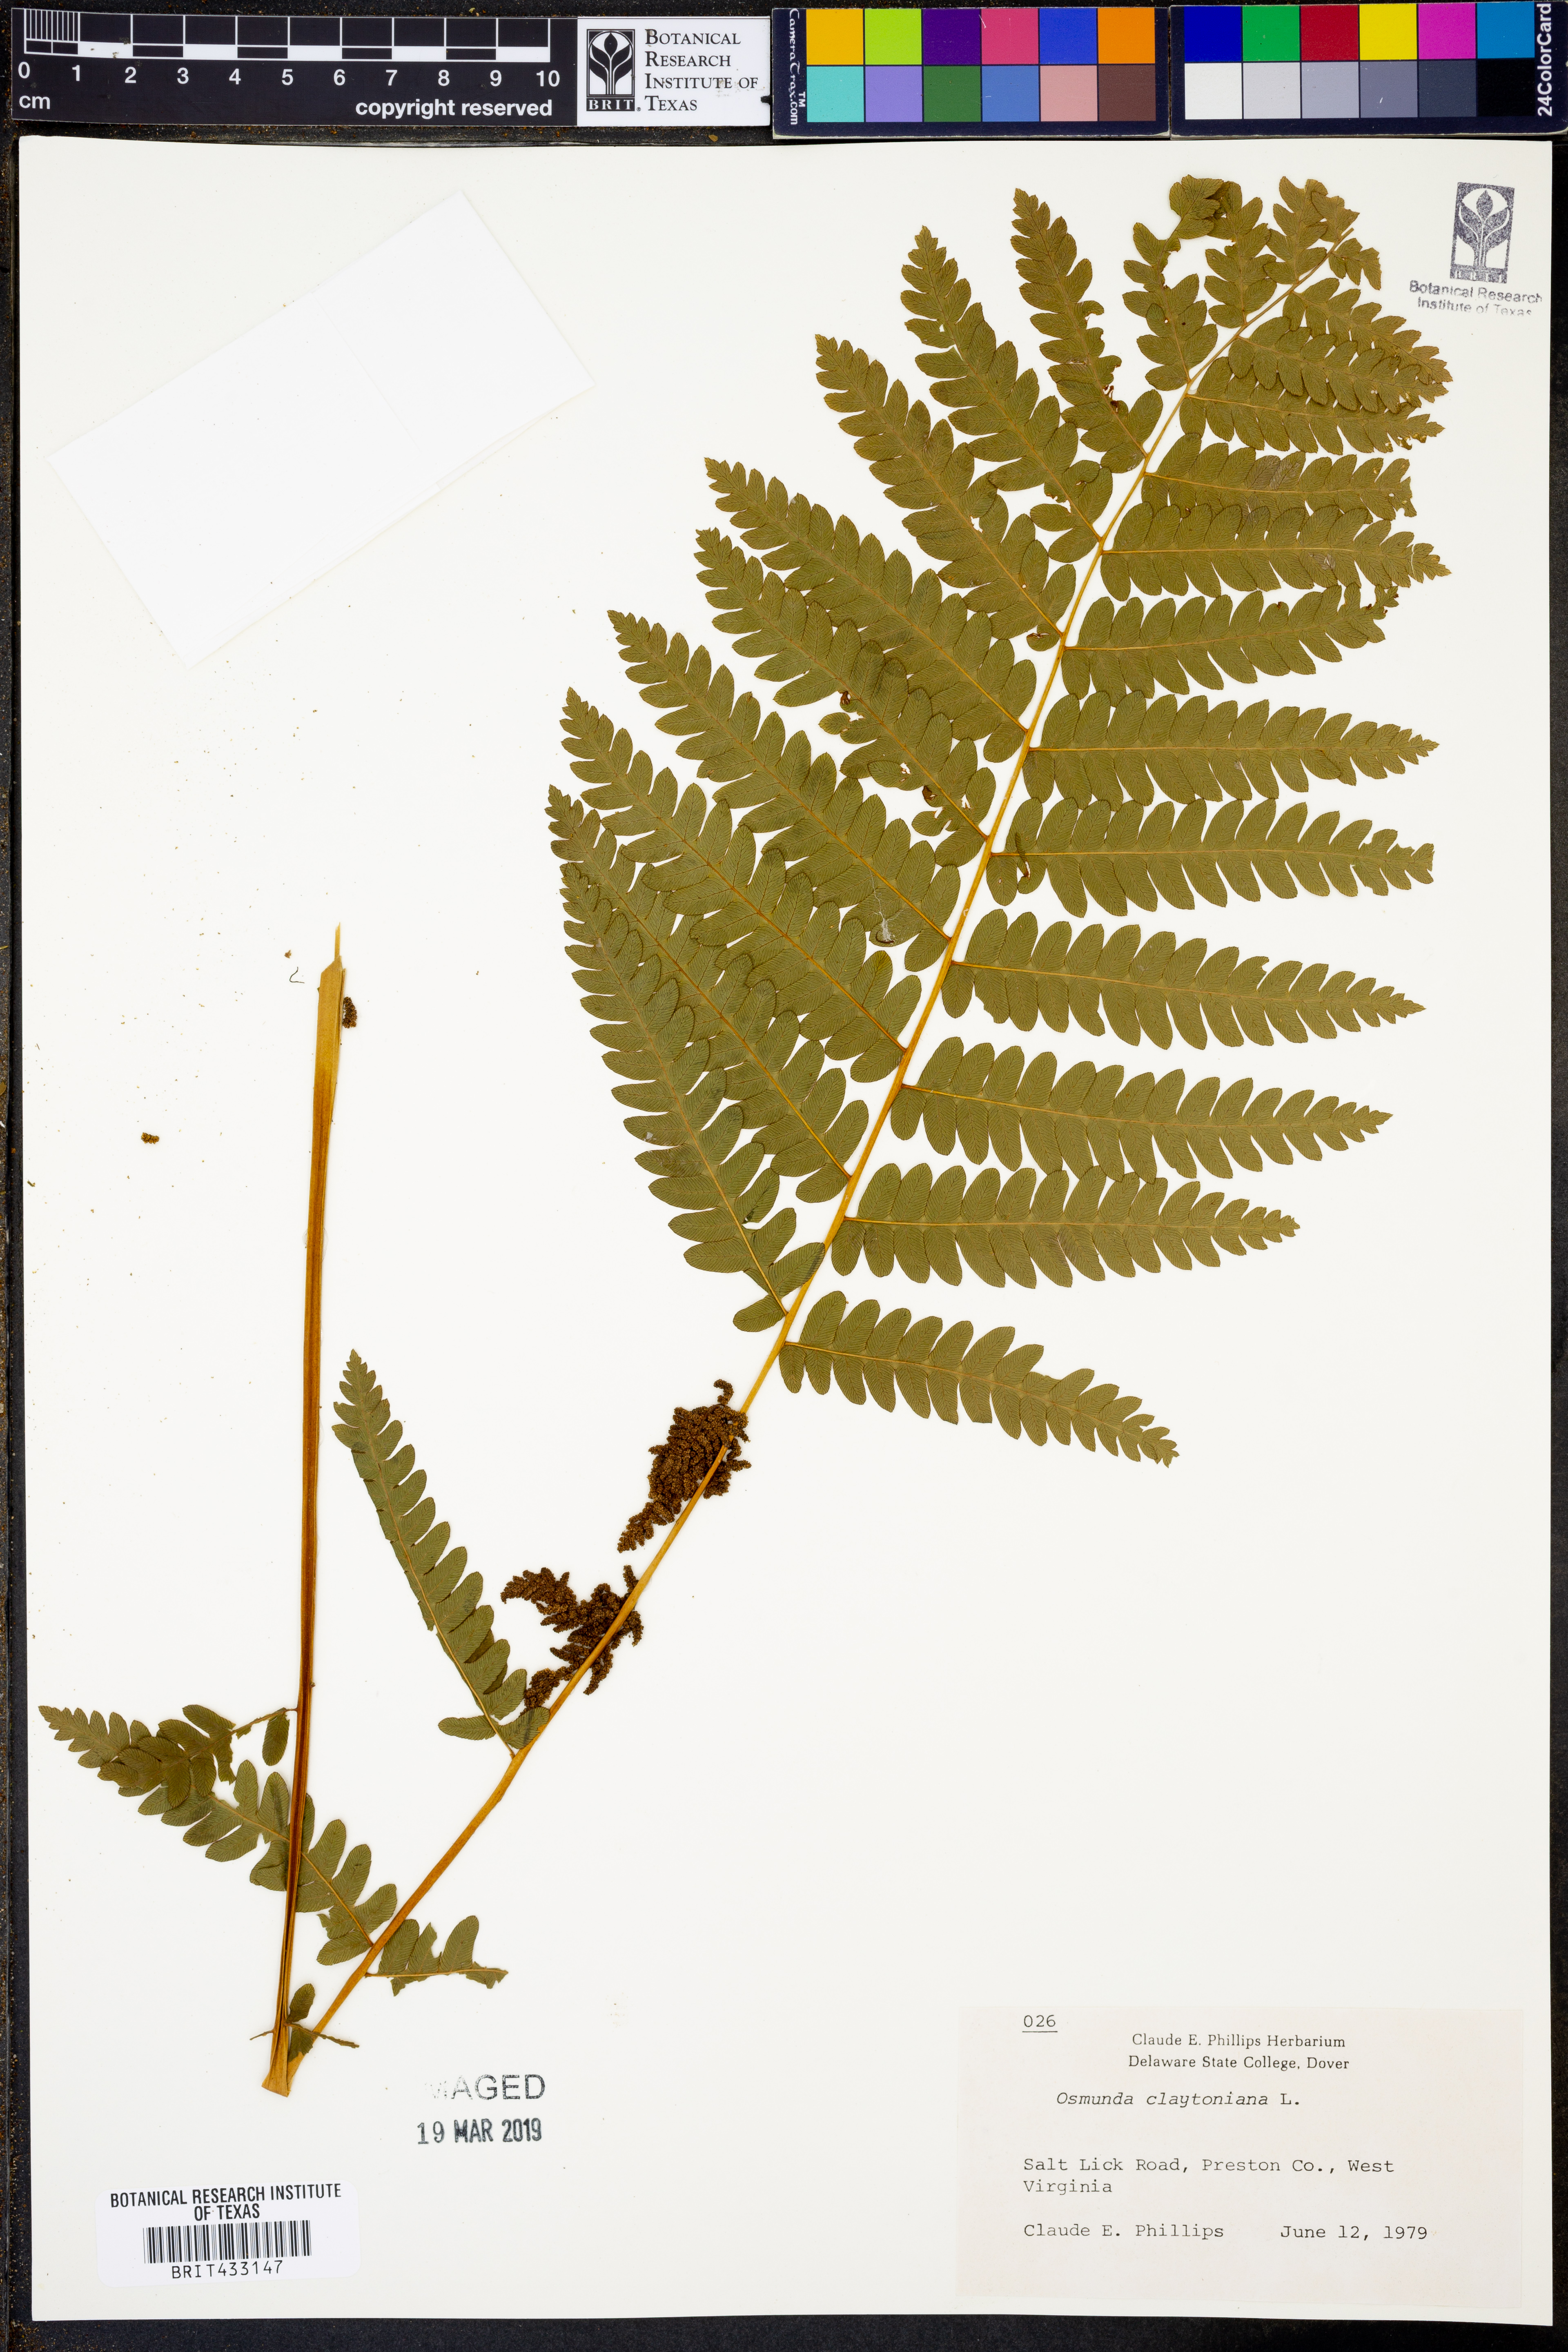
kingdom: Plantae
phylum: Tracheophyta
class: Polypodiopsida
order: Osmundales
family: Osmundaceae
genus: Claytosmunda
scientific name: Claytosmunda claytoniana
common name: Clayton's fern
